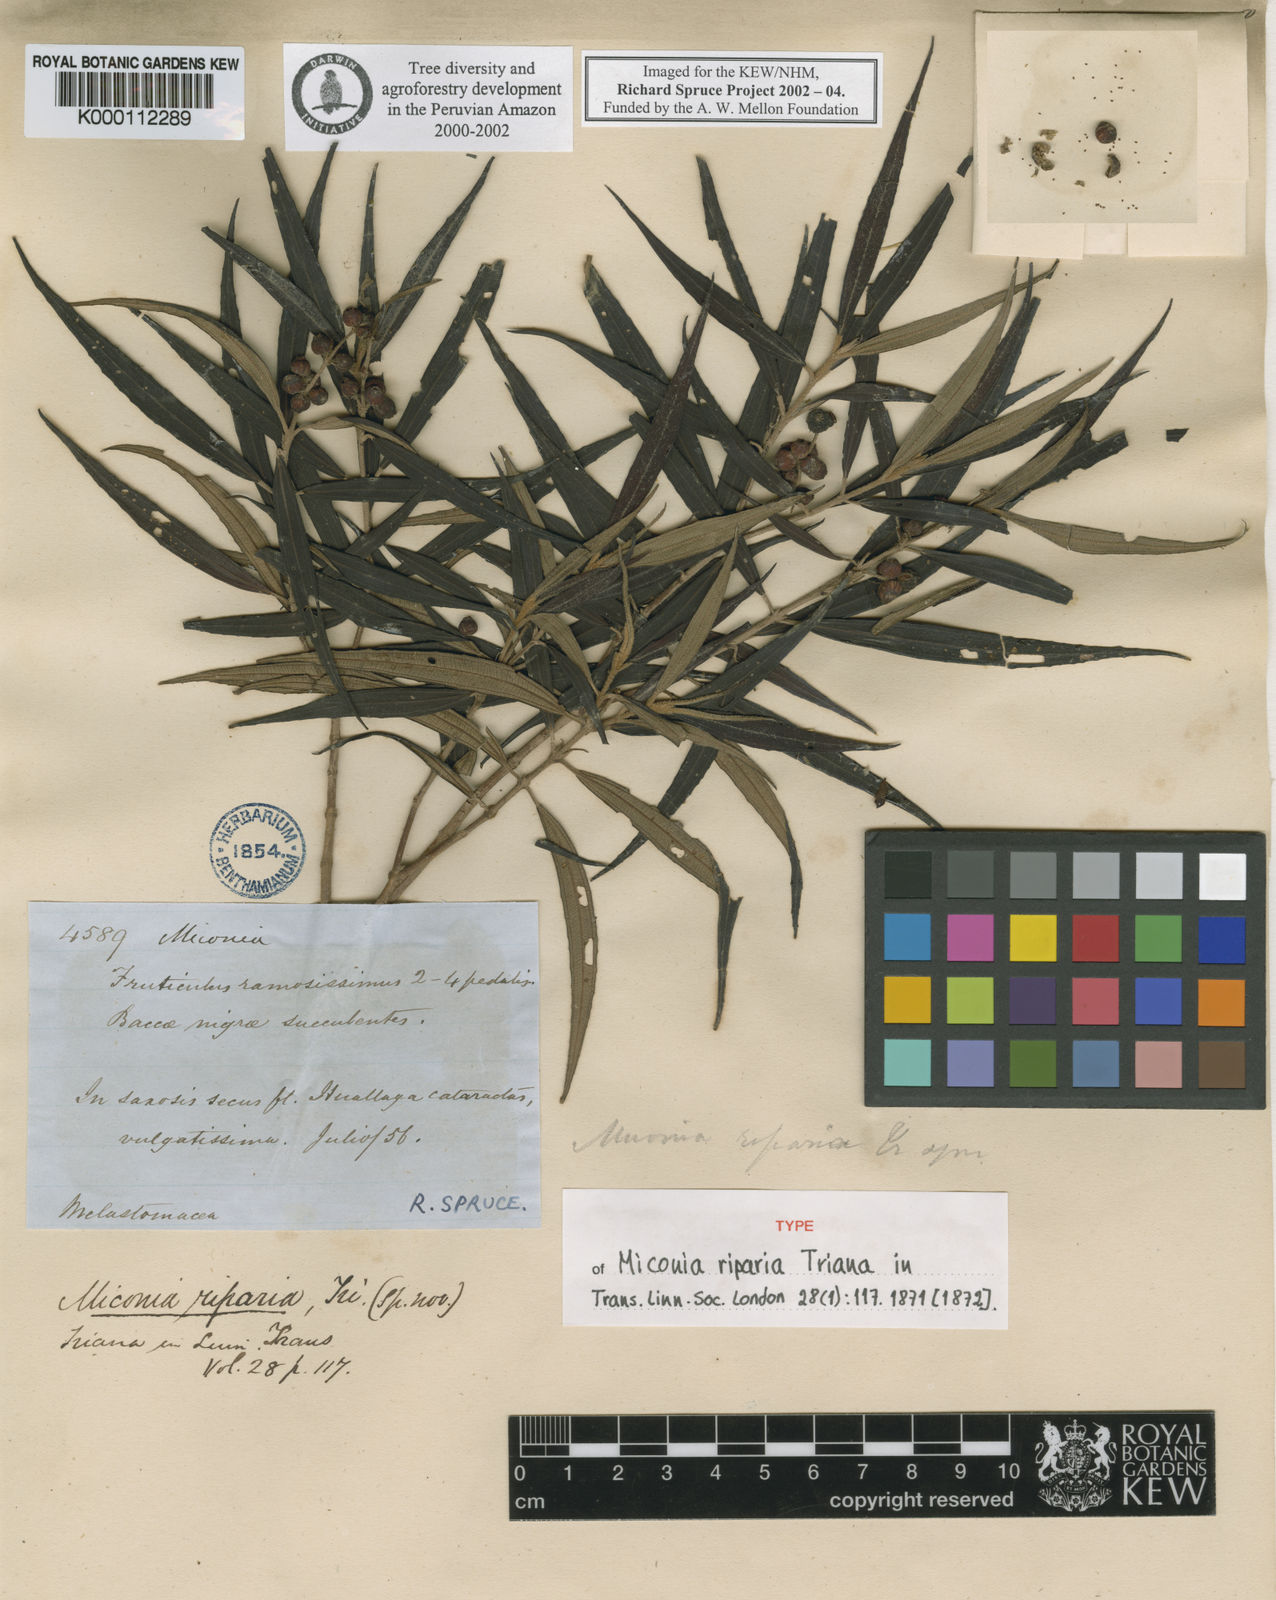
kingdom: Plantae
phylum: Tracheophyta
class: Magnoliopsida
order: Myrtales
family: Melastomataceae
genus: Miconia
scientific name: Miconia riparia
